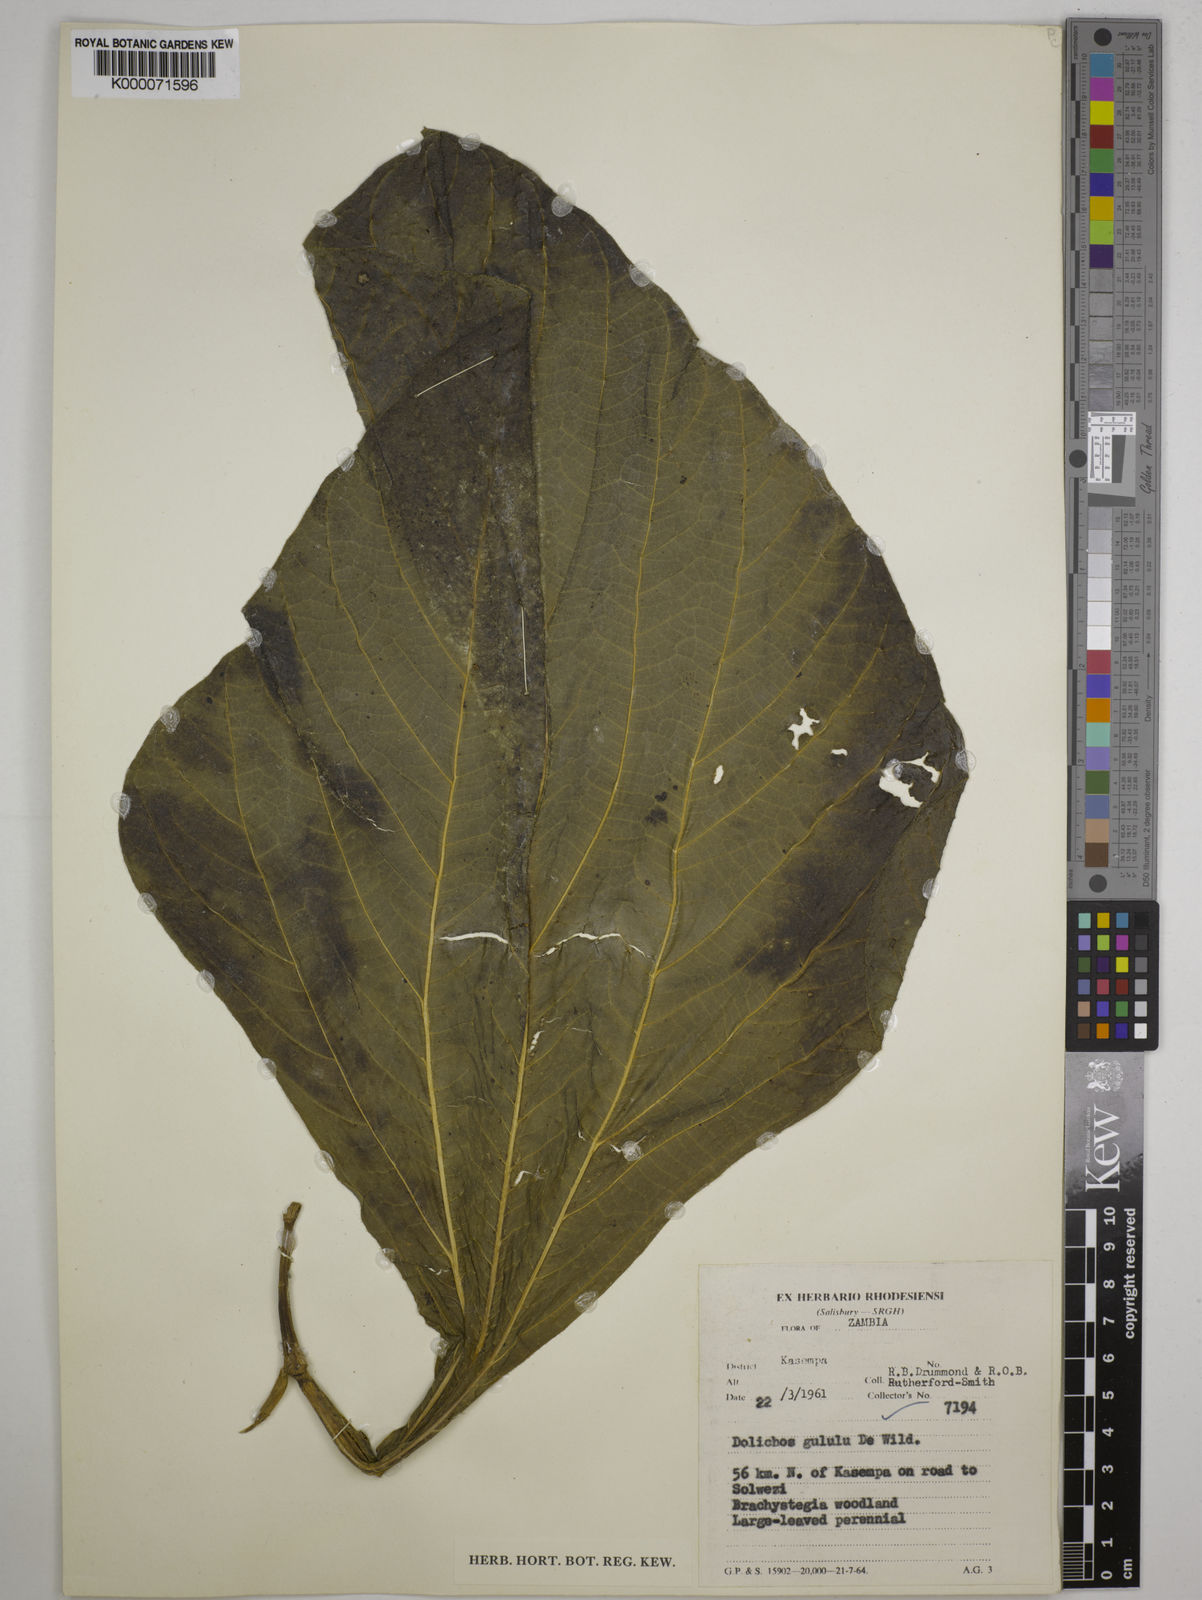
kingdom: Plantae
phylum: Tracheophyta
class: Magnoliopsida
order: Fabales
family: Fabaceae
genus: Dolichos
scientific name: Dolichos gululu
